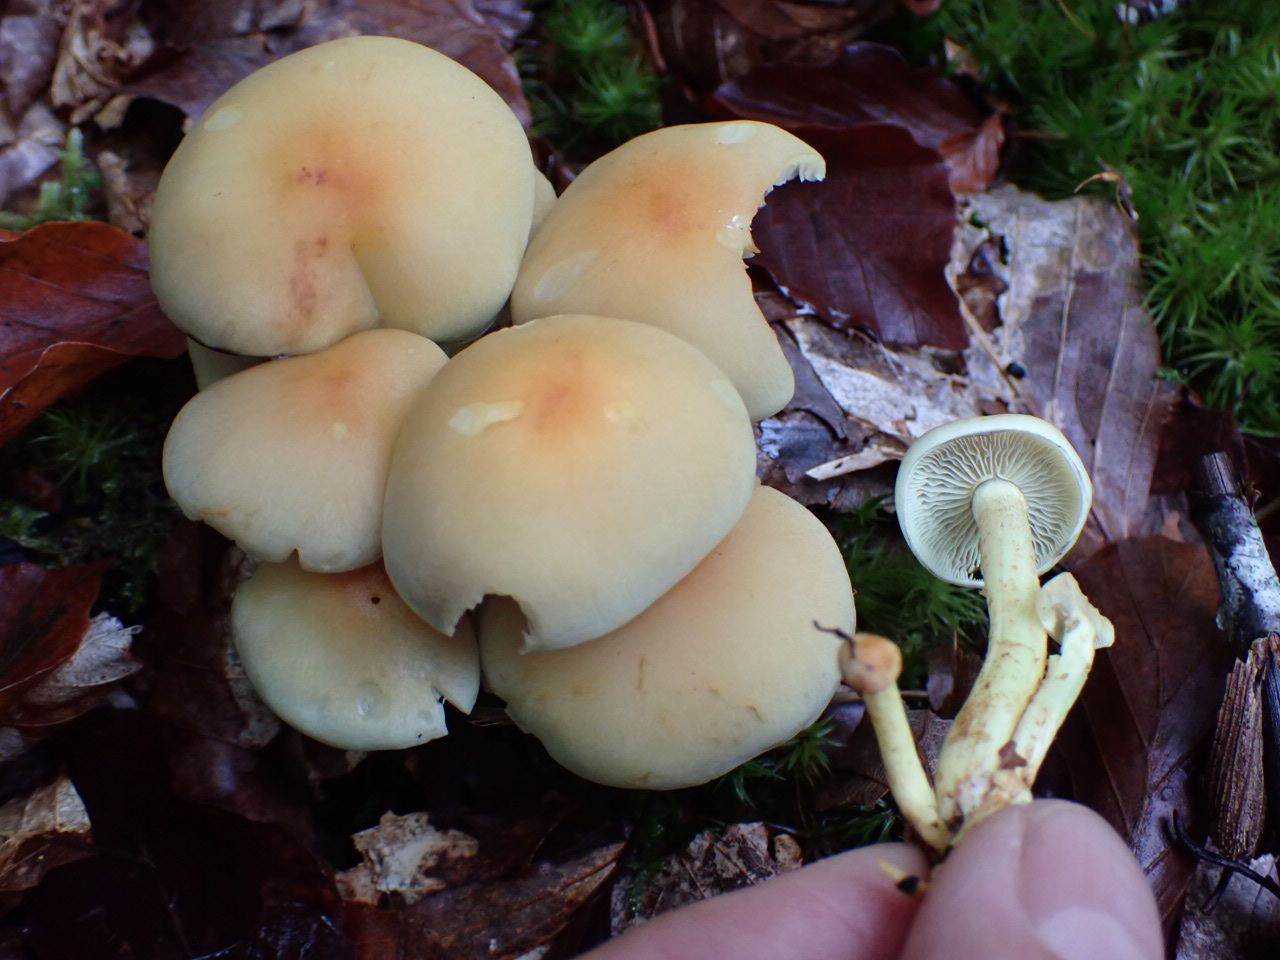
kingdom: Fungi
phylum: Basidiomycota
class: Agaricomycetes
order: Agaricales
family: Strophariaceae
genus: Hypholoma
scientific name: Hypholoma fasciculare
